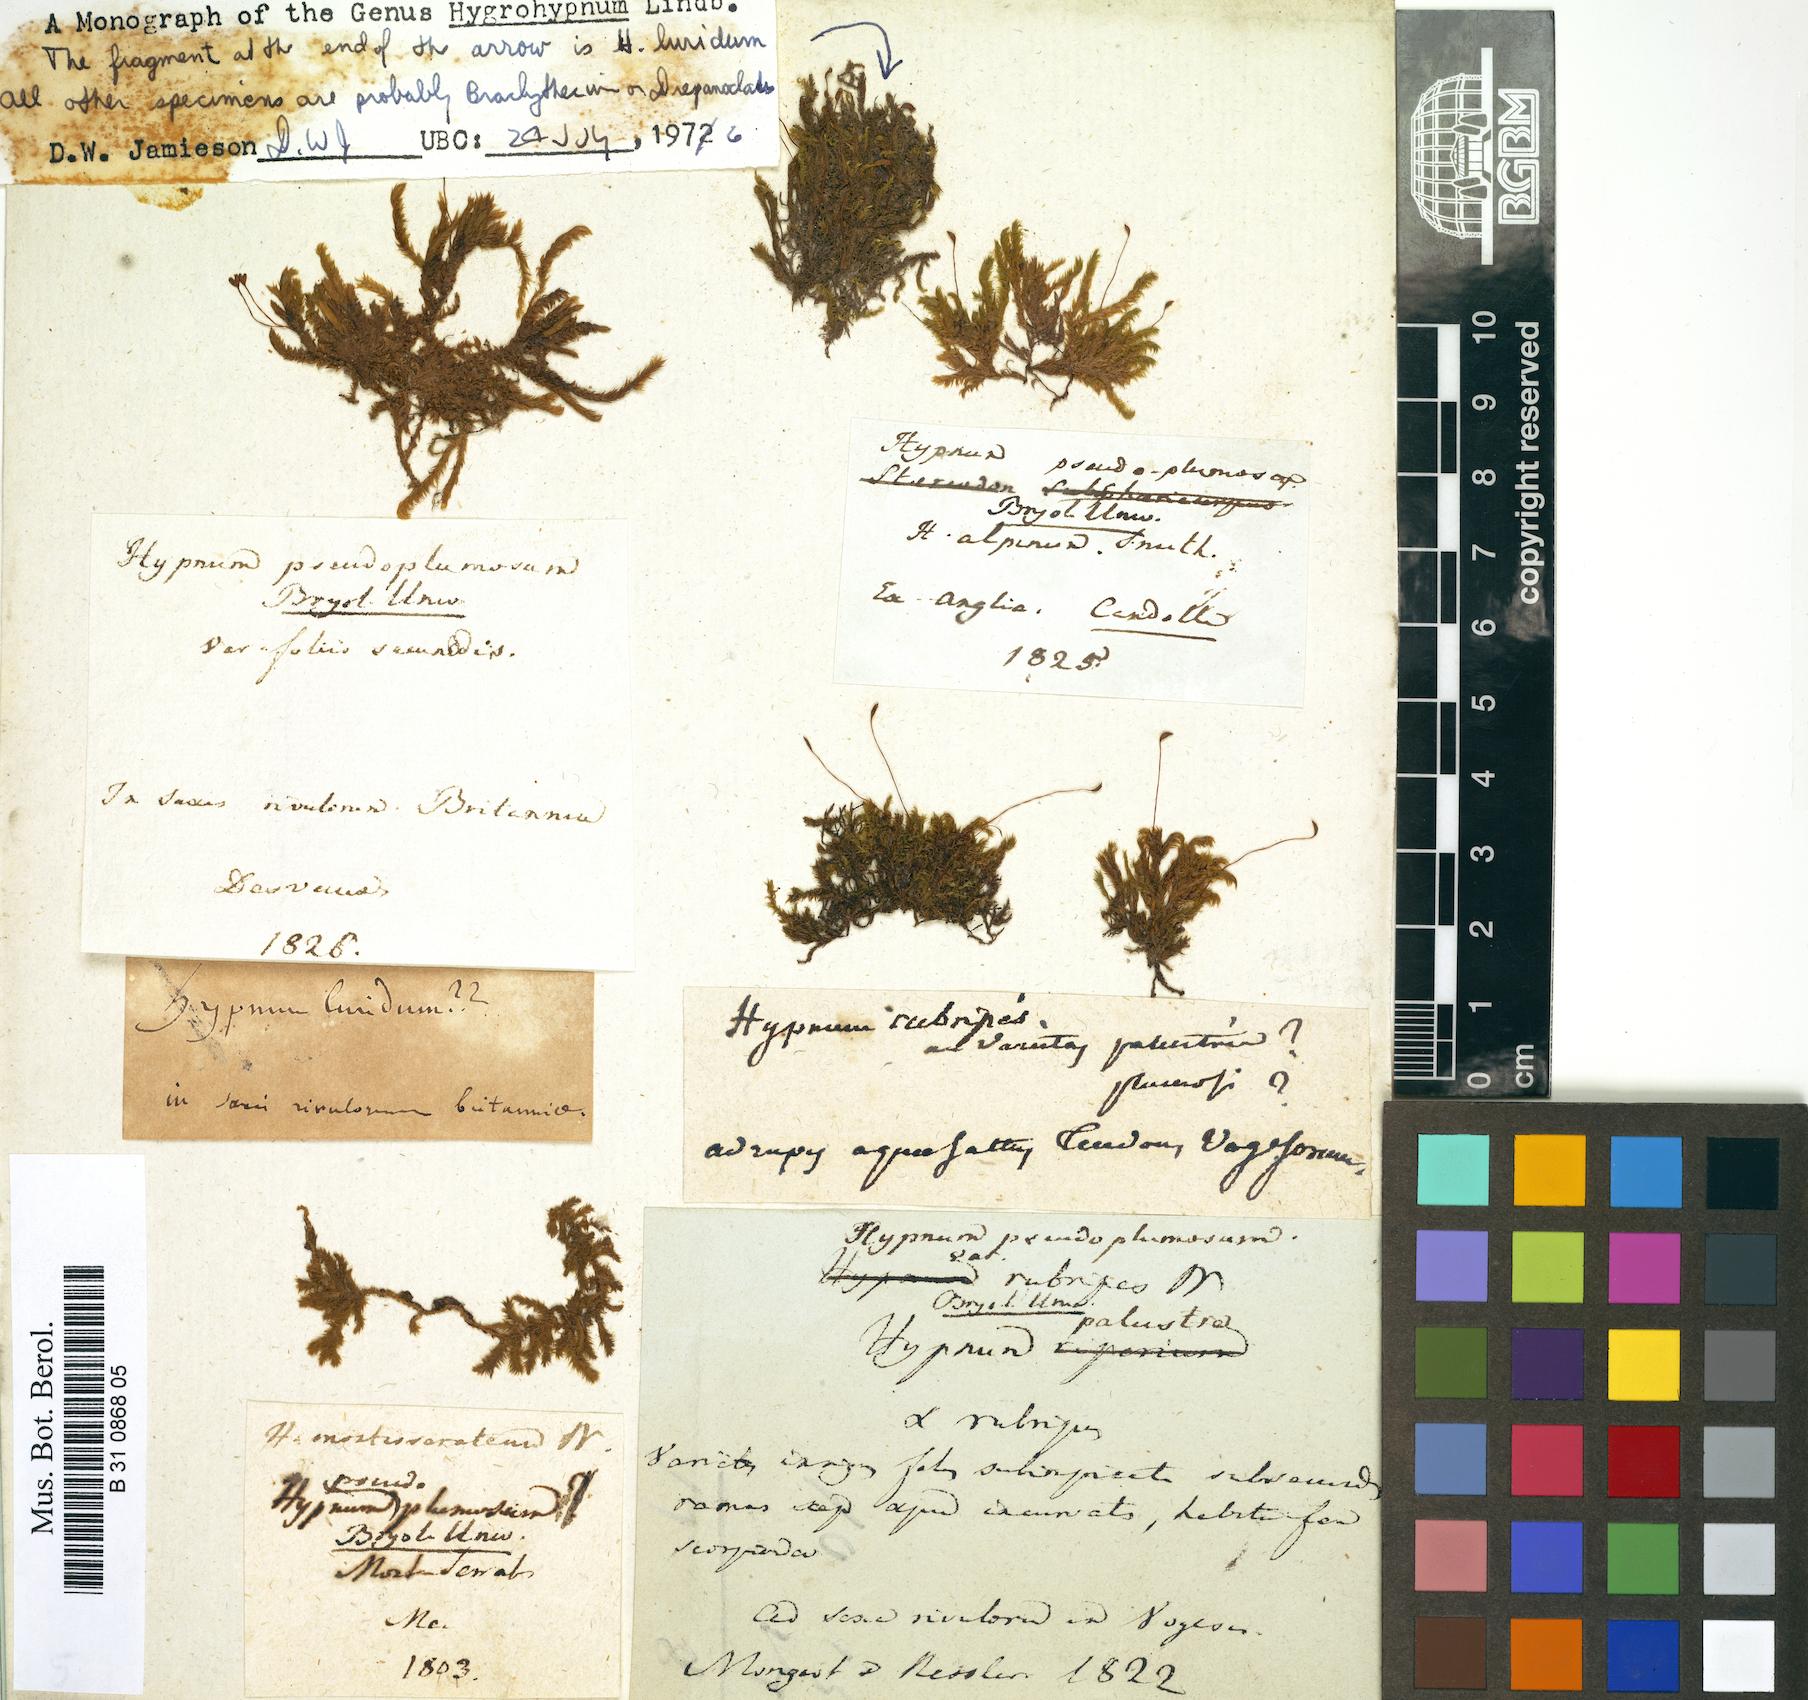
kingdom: Plantae
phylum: Bryophyta
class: Bryopsida
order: Hypnales
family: Brachytheciaceae
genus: Sciuro-hypnum
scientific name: Sciuro-hypnum plumosum
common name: Rusty feather-moss
